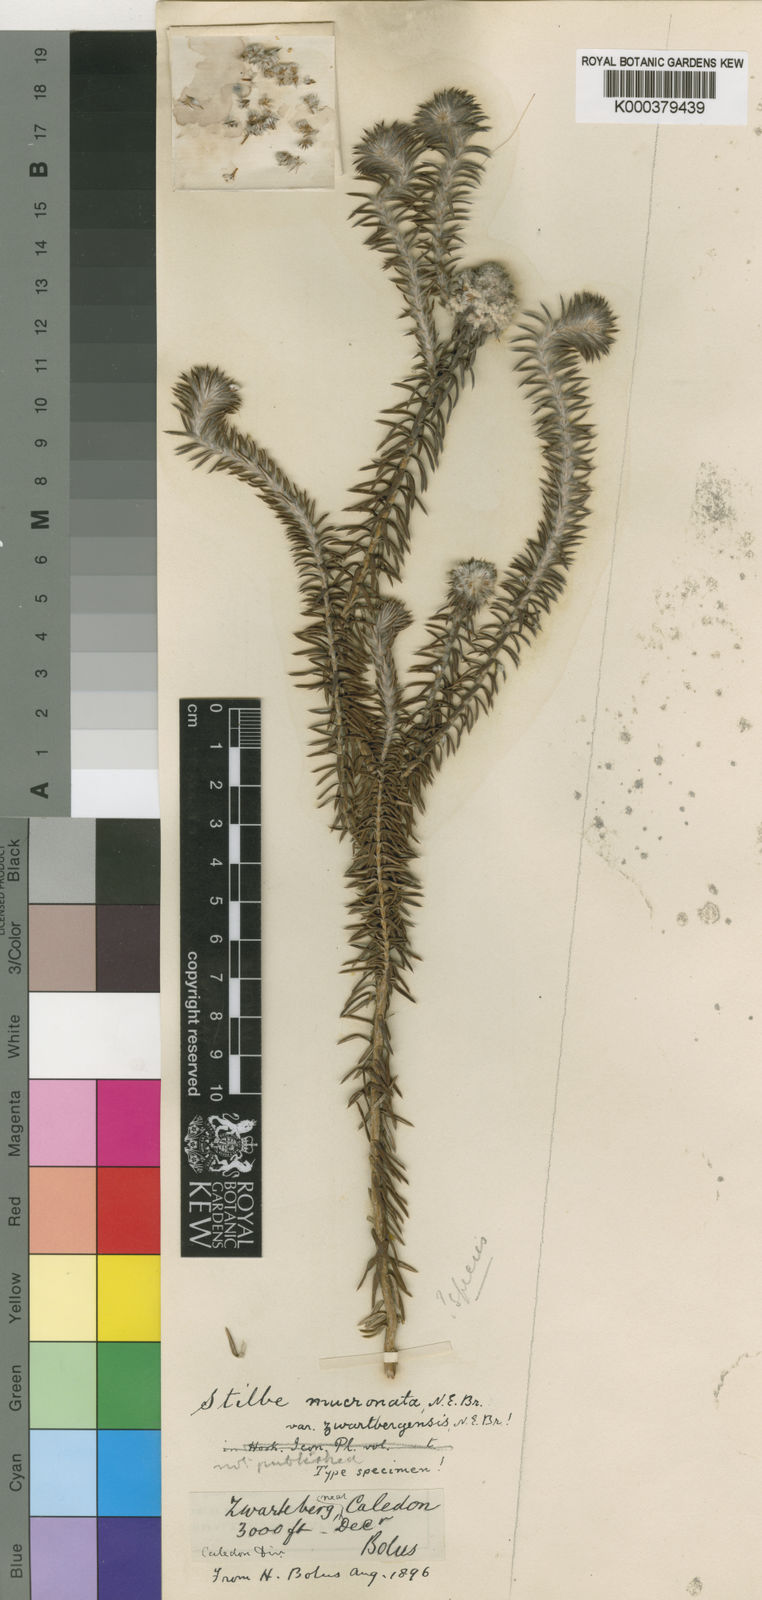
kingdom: Plantae
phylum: Tracheophyta
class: Magnoliopsida
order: Lamiales
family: Stilbaceae
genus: Kogelbergia
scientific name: Kogelbergia
